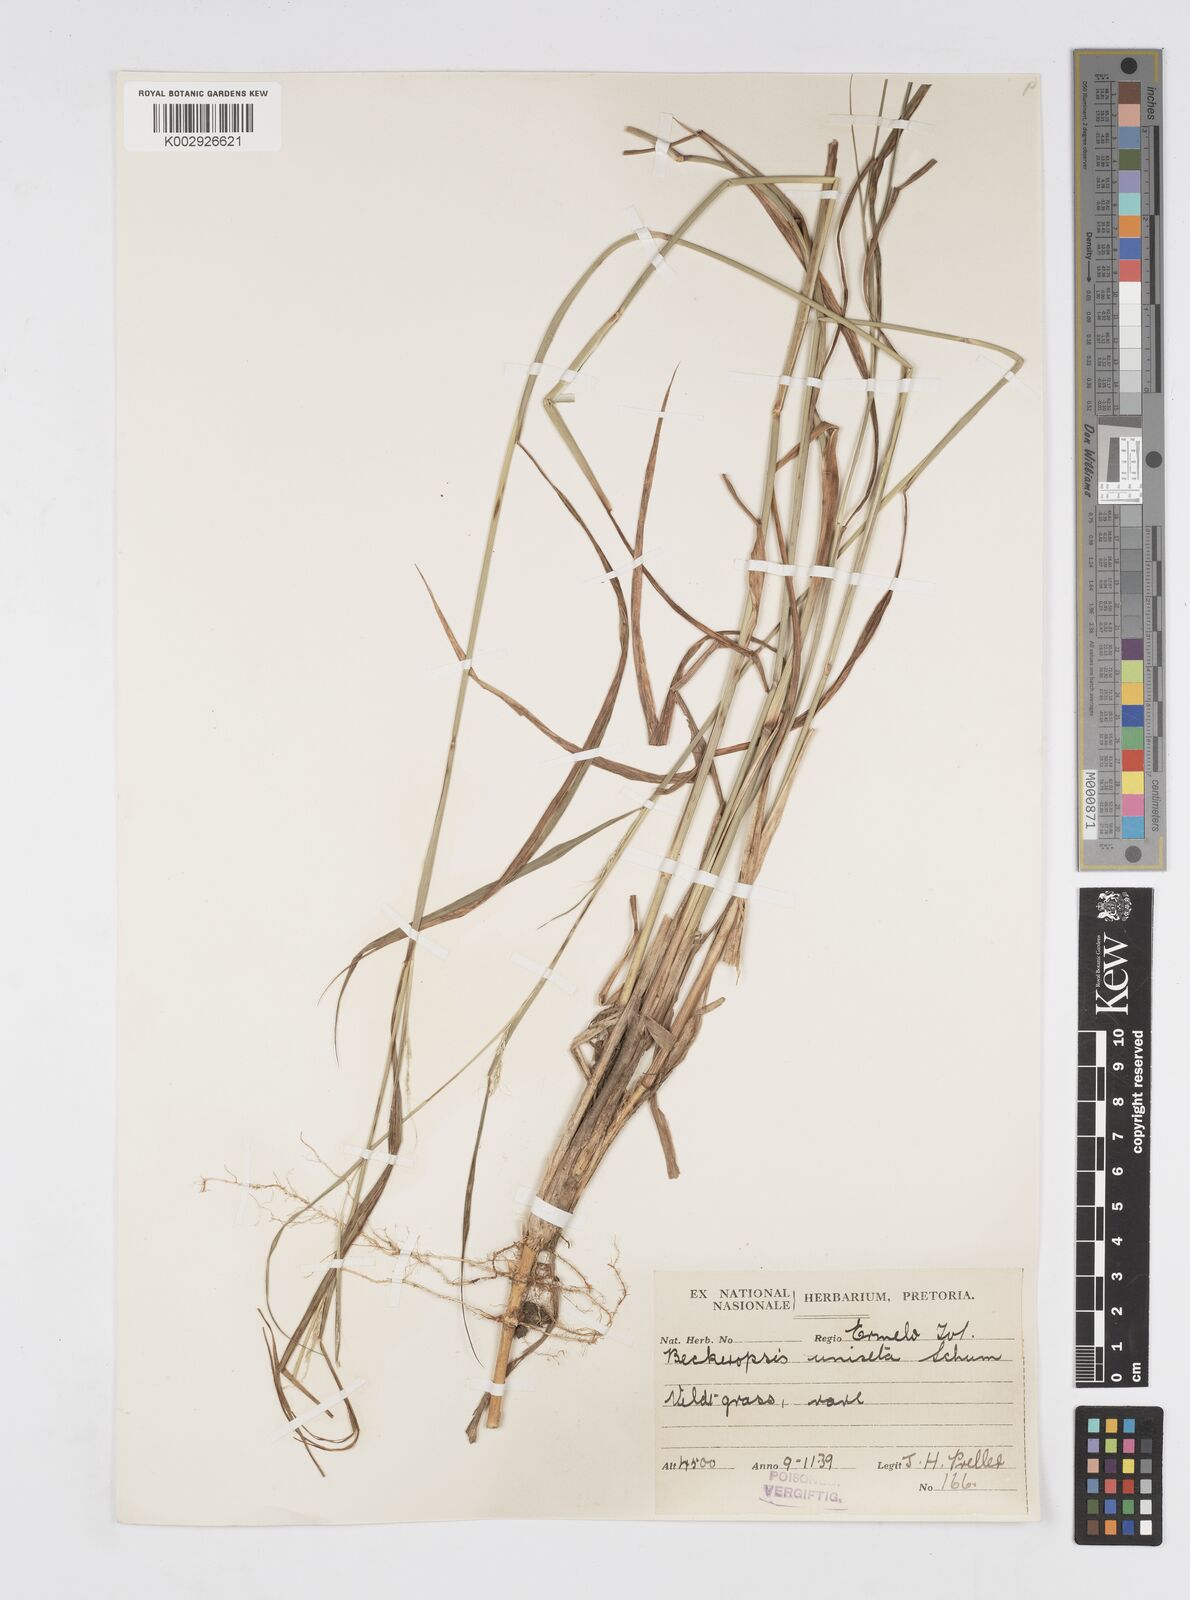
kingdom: Plantae
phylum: Tracheophyta
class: Liliopsida
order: Poales
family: Poaceae
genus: Cenchrus
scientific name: Cenchrus unisetus
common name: Natal grass
